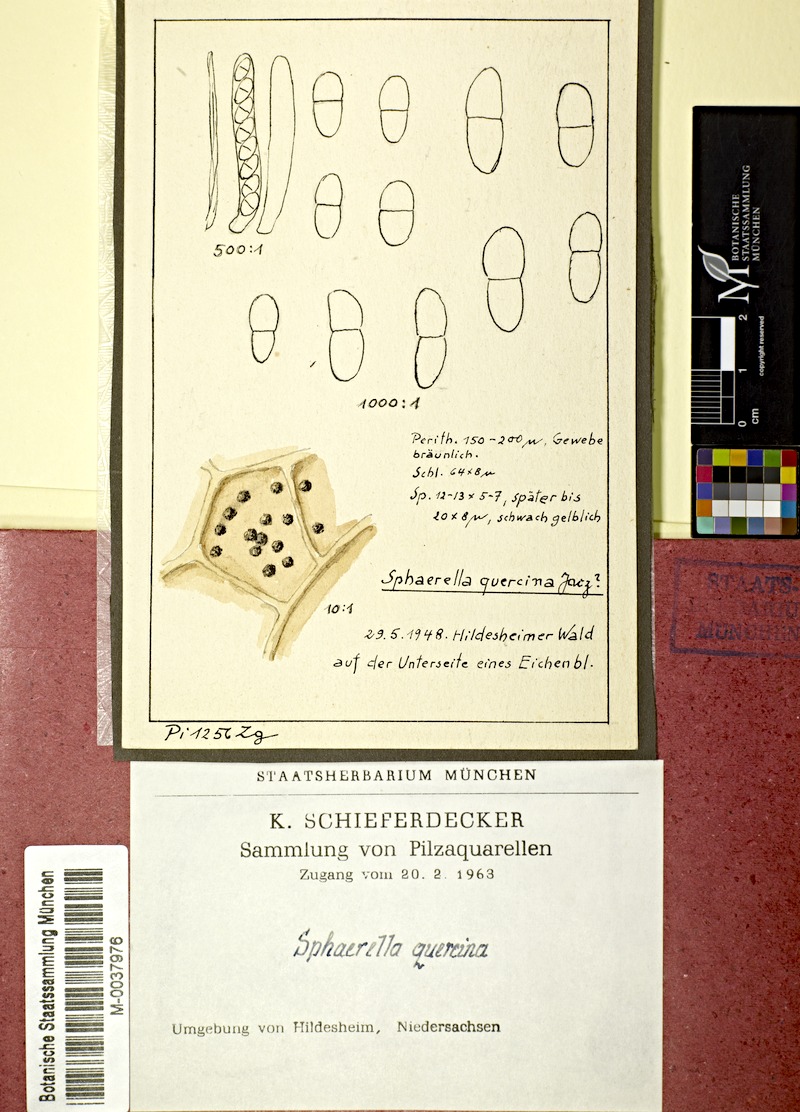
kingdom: Fungi
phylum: Ascomycota
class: Dothideomycetes
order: Mycosphaerellales
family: Mycosphaerellaceae
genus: Mycosphaerella
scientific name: Mycosphaerella quercina
